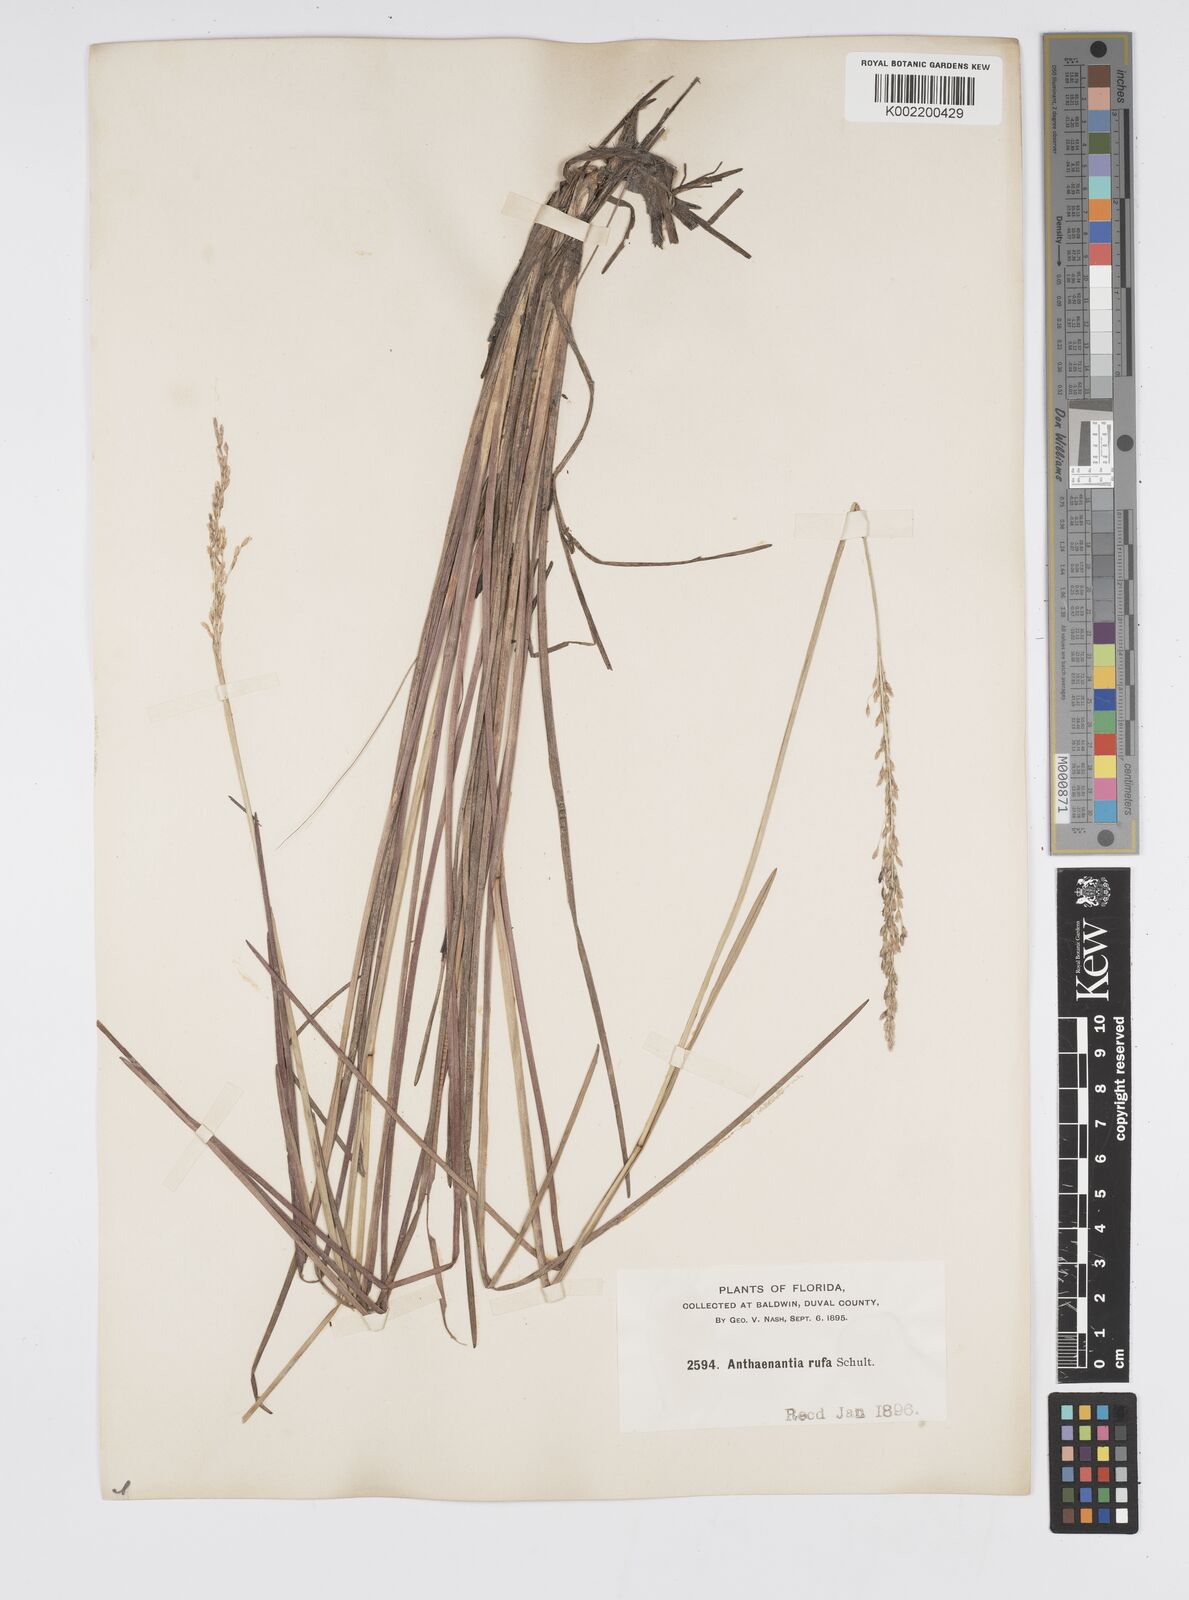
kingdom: Plantae
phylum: Tracheophyta
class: Liliopsida
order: Poales
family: Poaceae
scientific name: Poaceae
